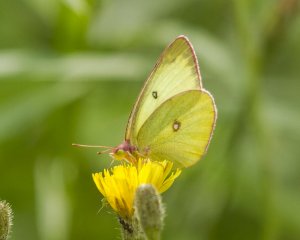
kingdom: Animalia
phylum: Arthropoda
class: Insecta
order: Lepidoptera
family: Pieridae
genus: Colias
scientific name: Colias interior
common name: Pink-edged Sulphur
